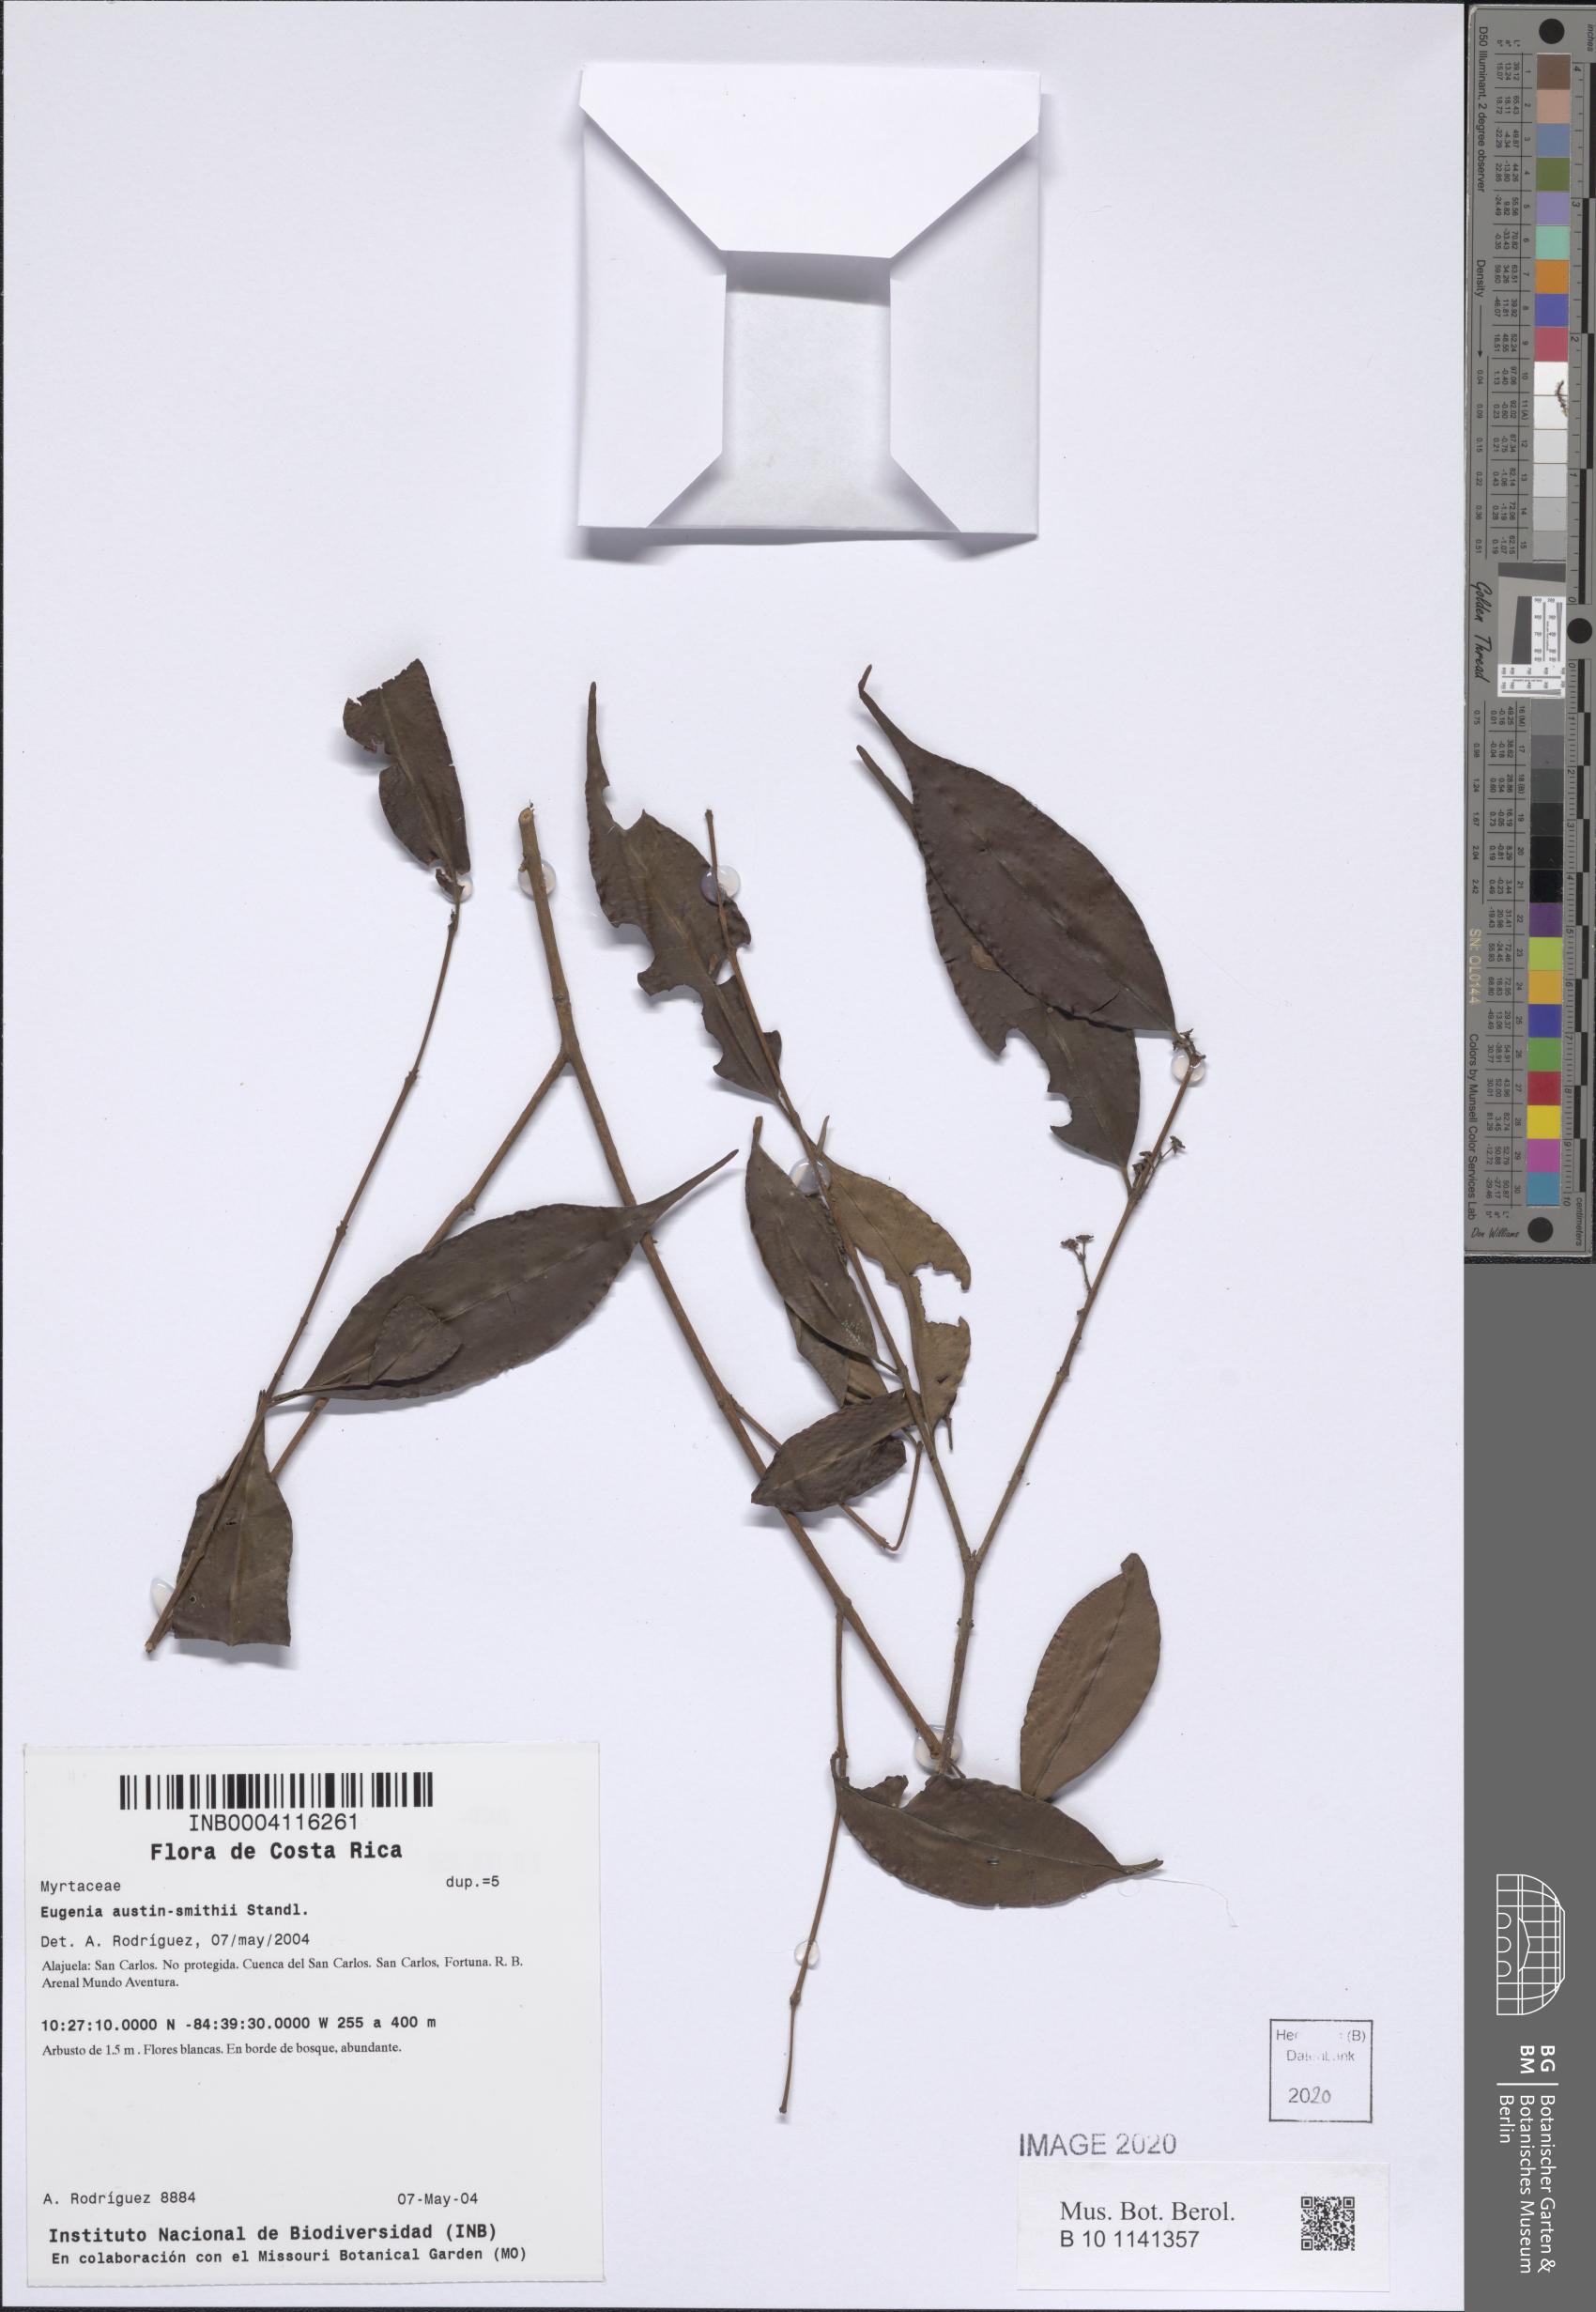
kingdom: Plantae
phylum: Tracheophyta
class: Magnoliopsida
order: Myrtales
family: Myrtaceae
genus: Eugenia
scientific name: Eugenia austin-smithii
